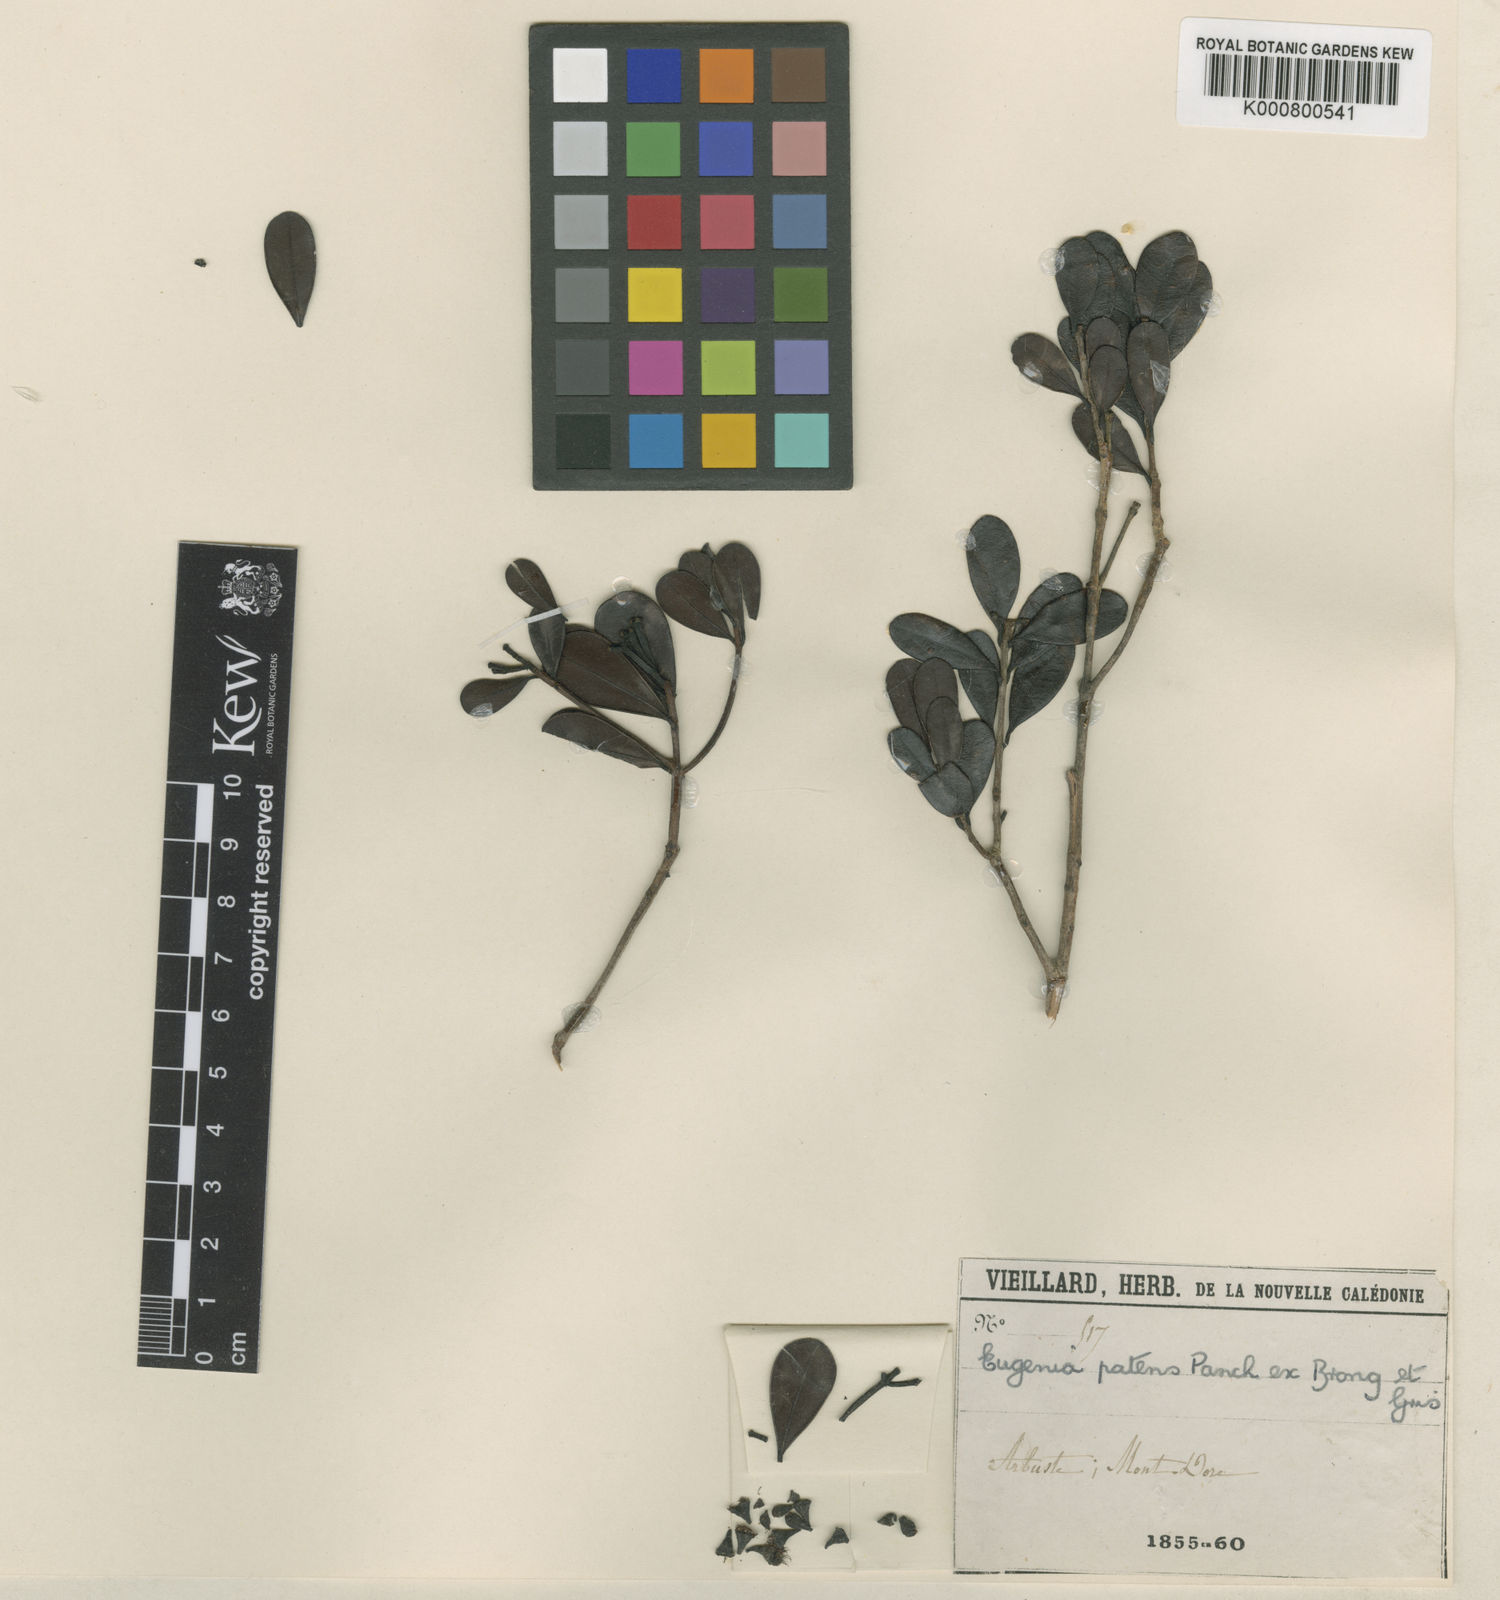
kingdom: Plantae
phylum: Tracheophyta
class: Magnoliopsida
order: Myrtales
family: Myrtaceae
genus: Syzygium
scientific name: Syzygium ngoyense
